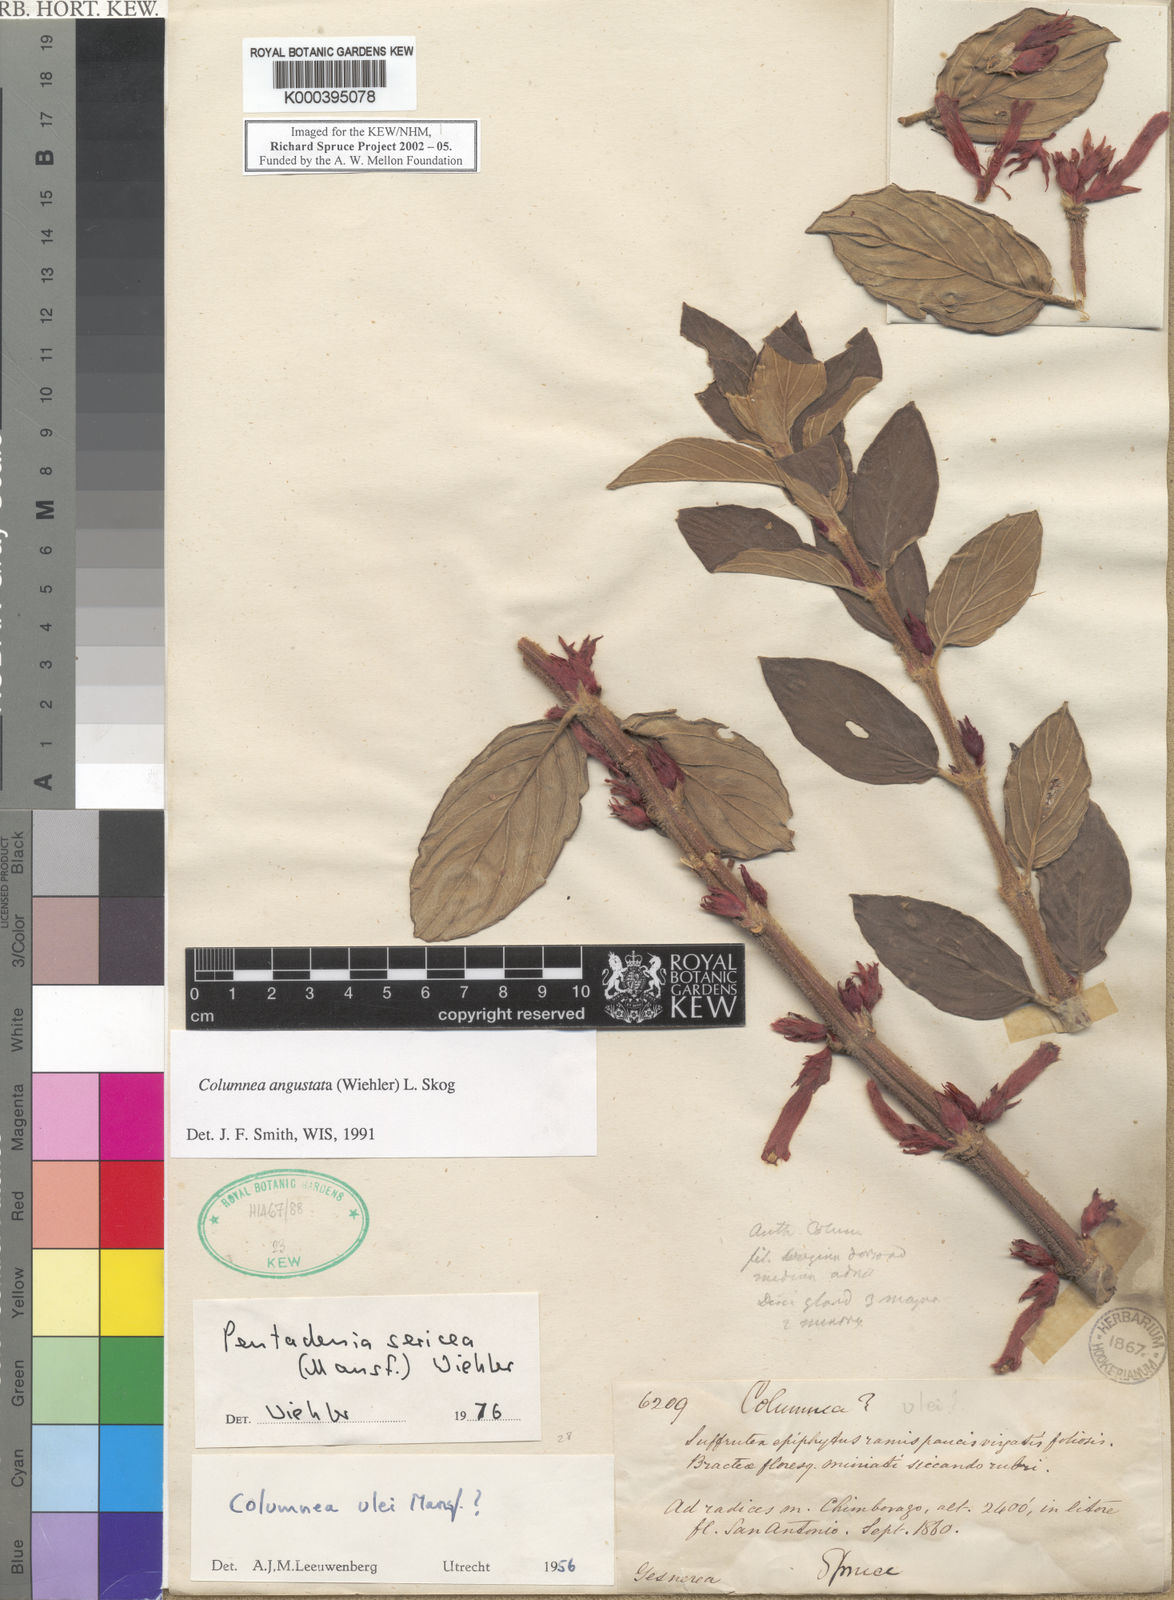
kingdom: Plantae
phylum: Tracheophyta
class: Magnoliopsida
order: Lamiales
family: Gesneriaceae
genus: Columnea
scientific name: Columnea angustata
